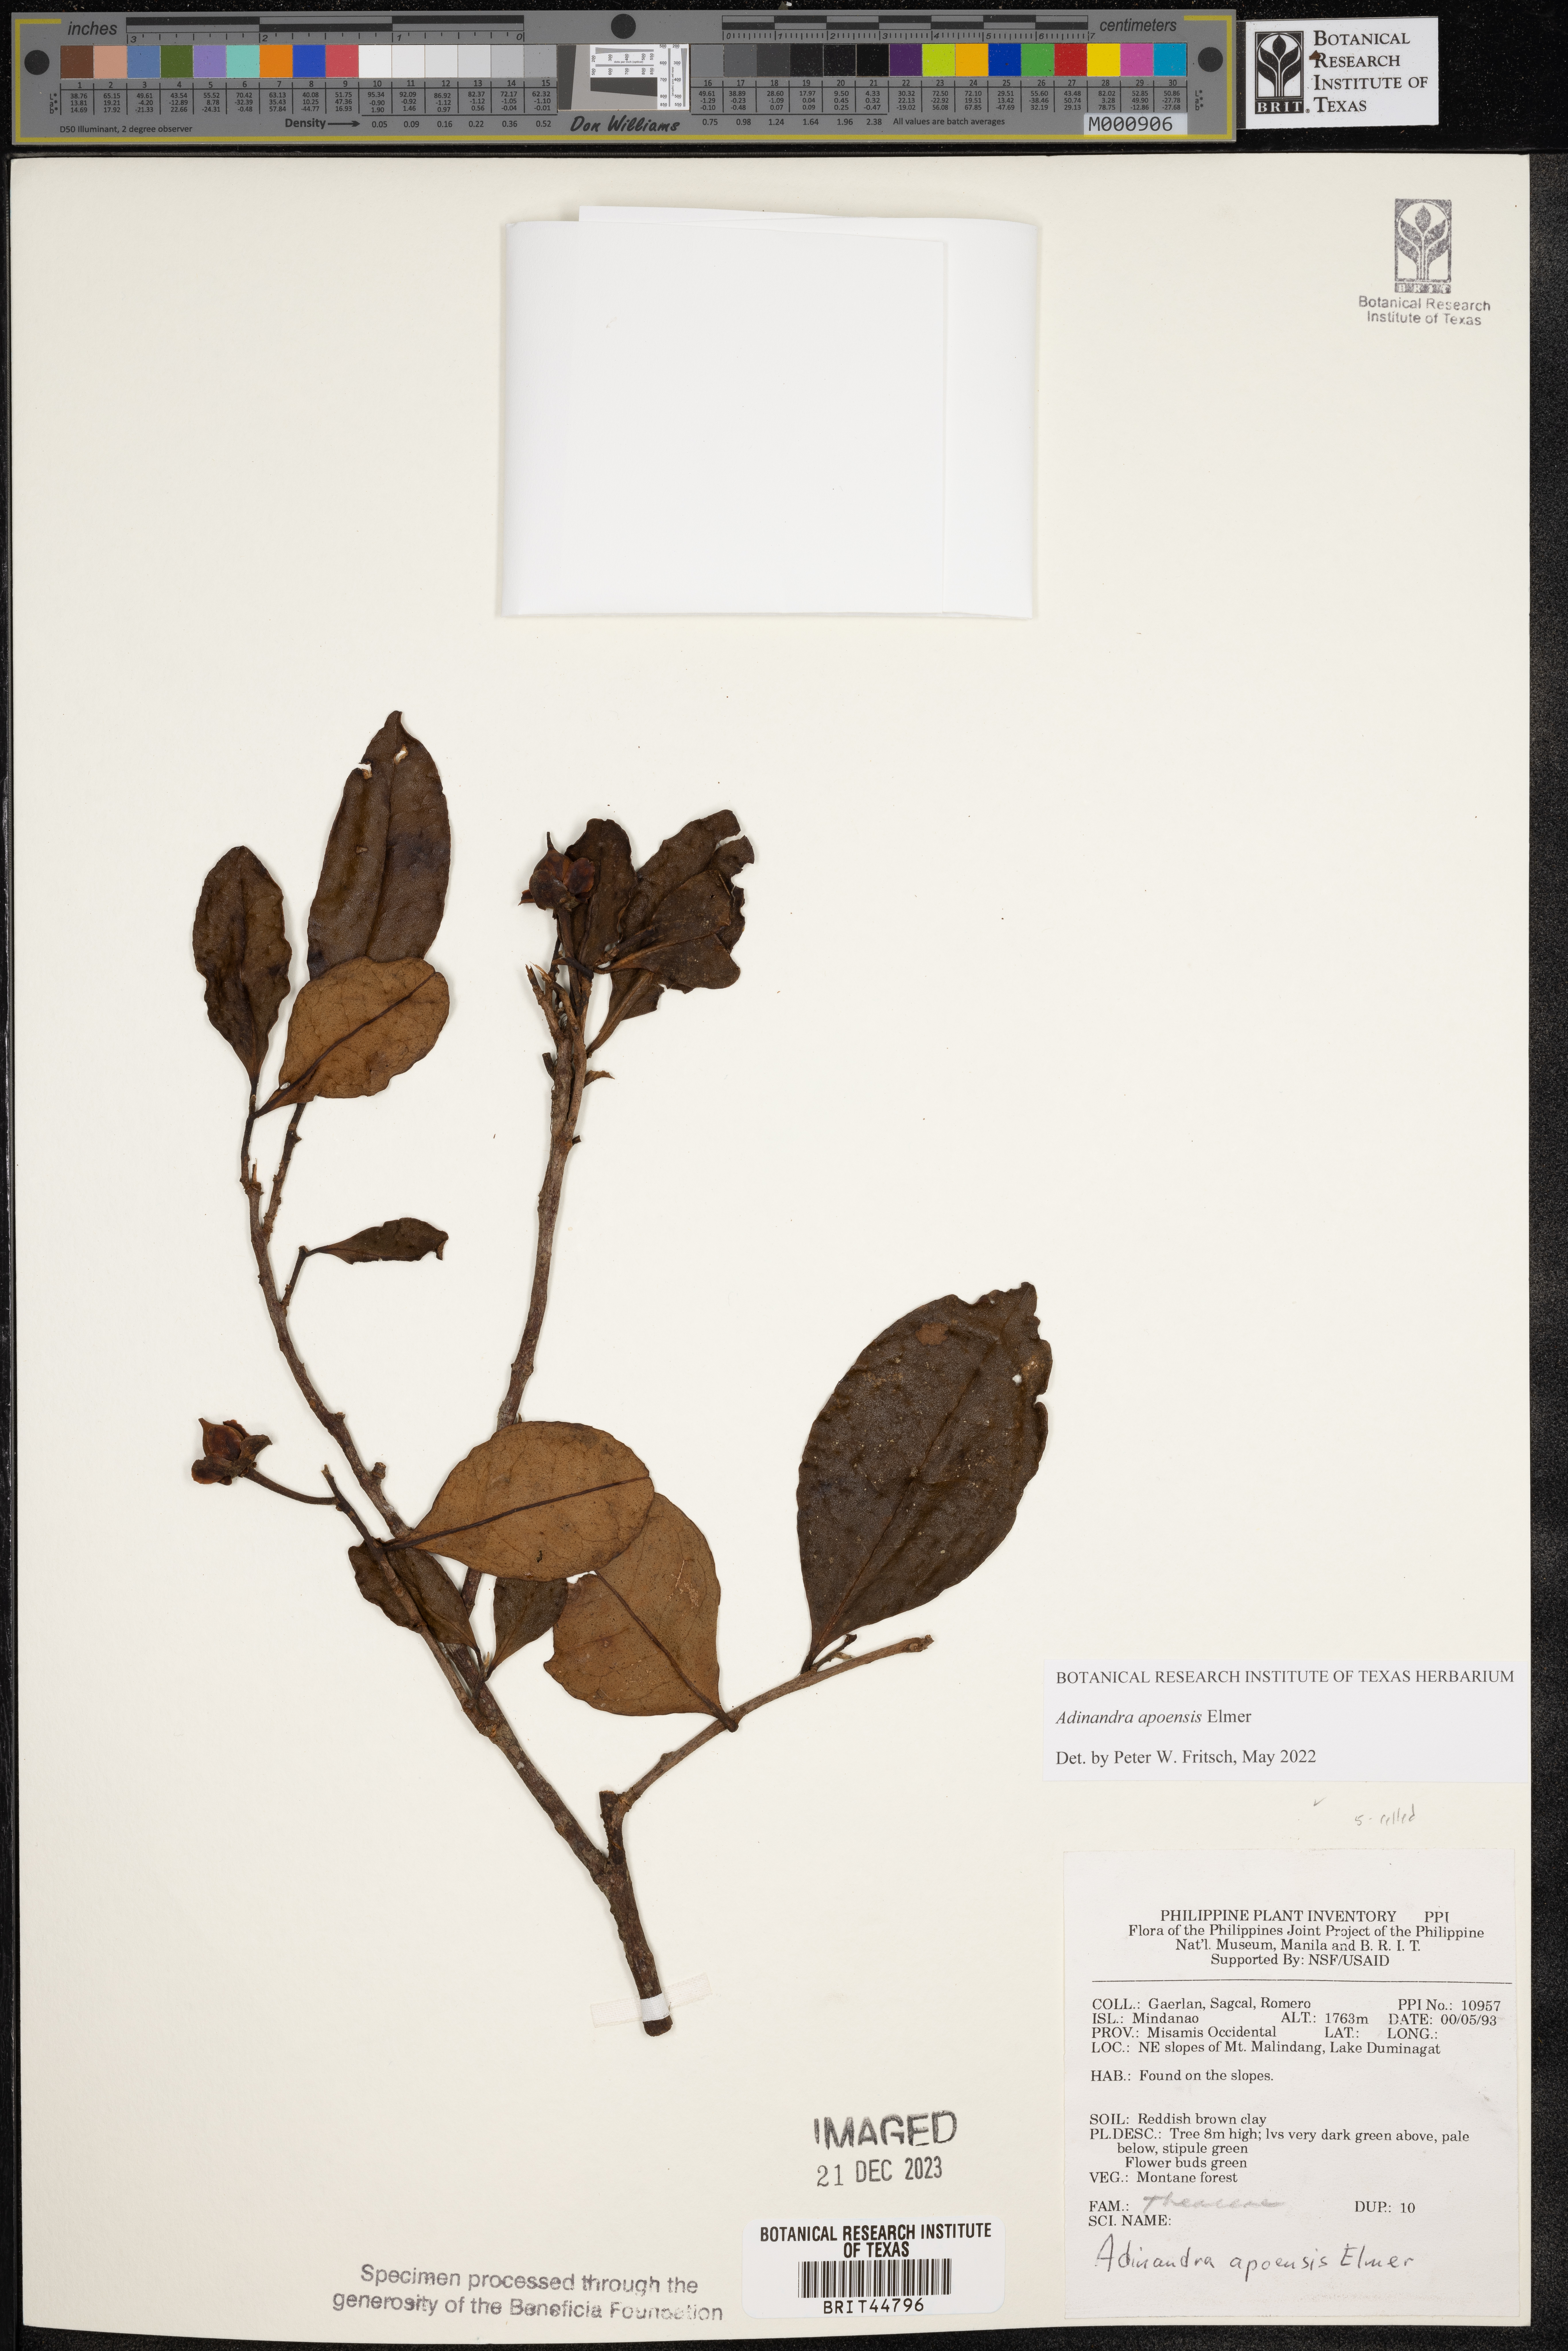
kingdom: Plantae
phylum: Tracheophyta
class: Magnoliopsida
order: Ericales
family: Pentaphylacaceae
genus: Adinandra
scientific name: Adinandra apoensis
